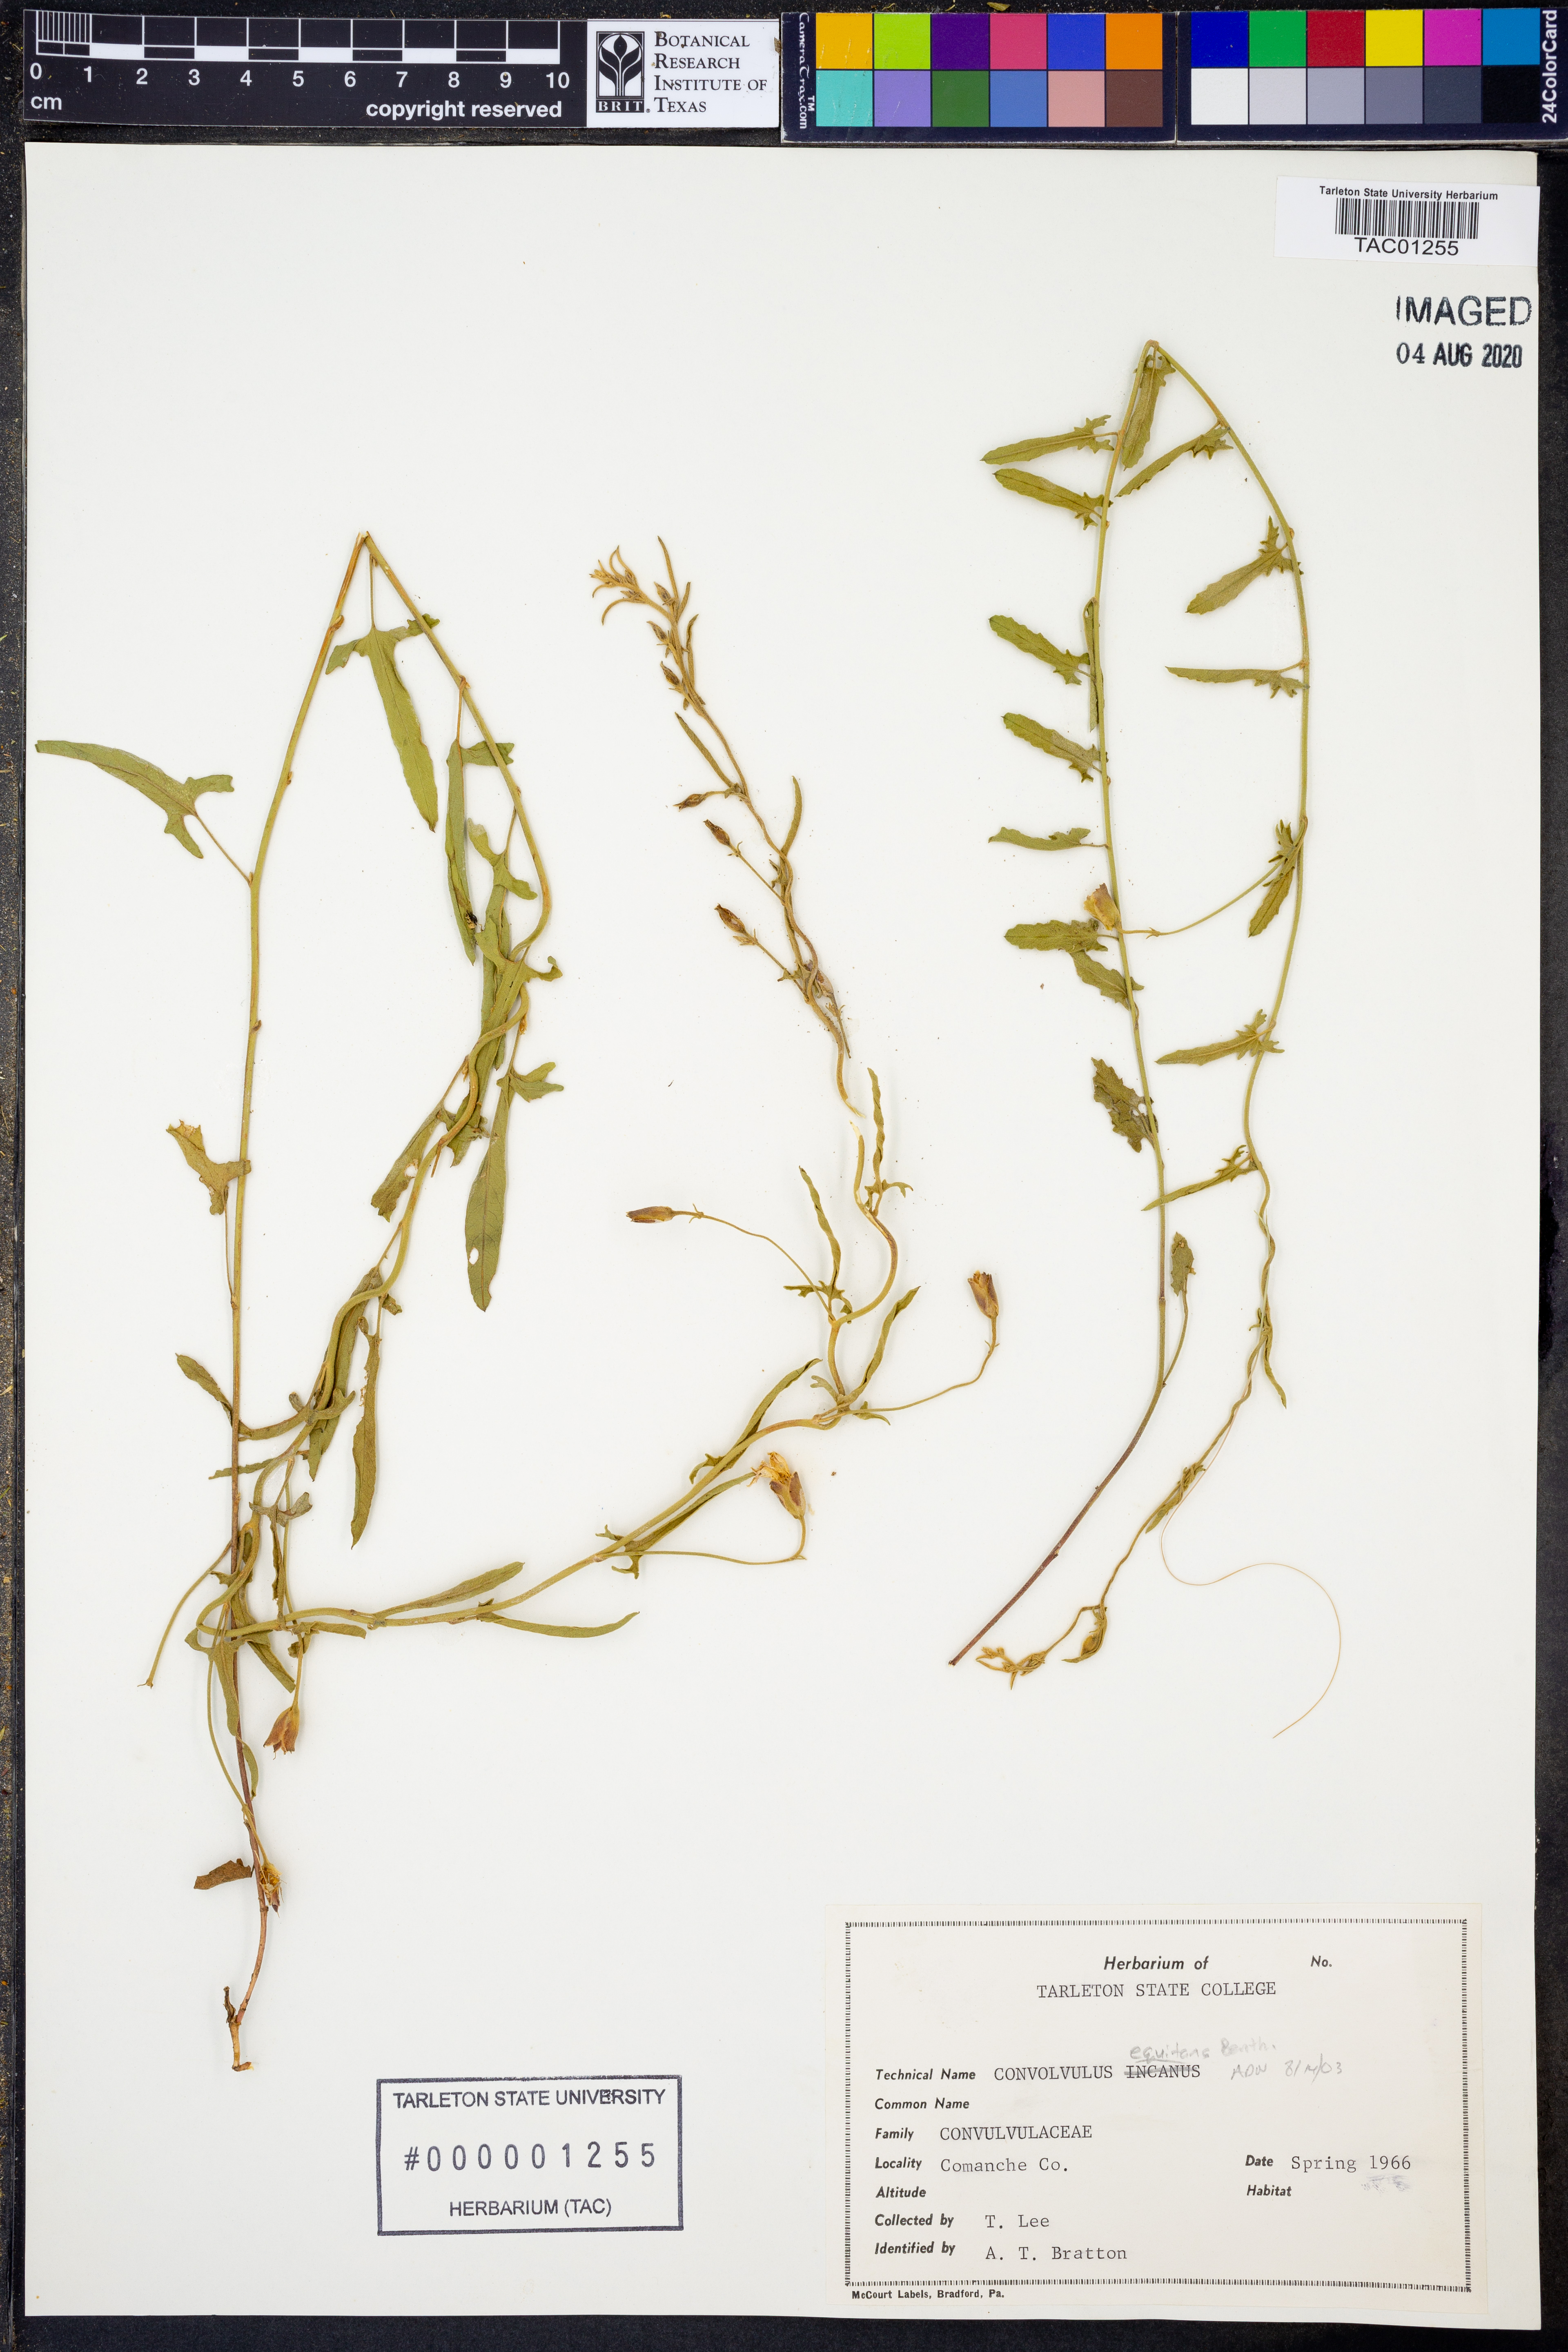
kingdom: Plantae
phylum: Tracheophyta
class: Magnoliopsida
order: Solanales
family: Convolvulaceae
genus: Convolvulus
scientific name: Convolvulus equitans
